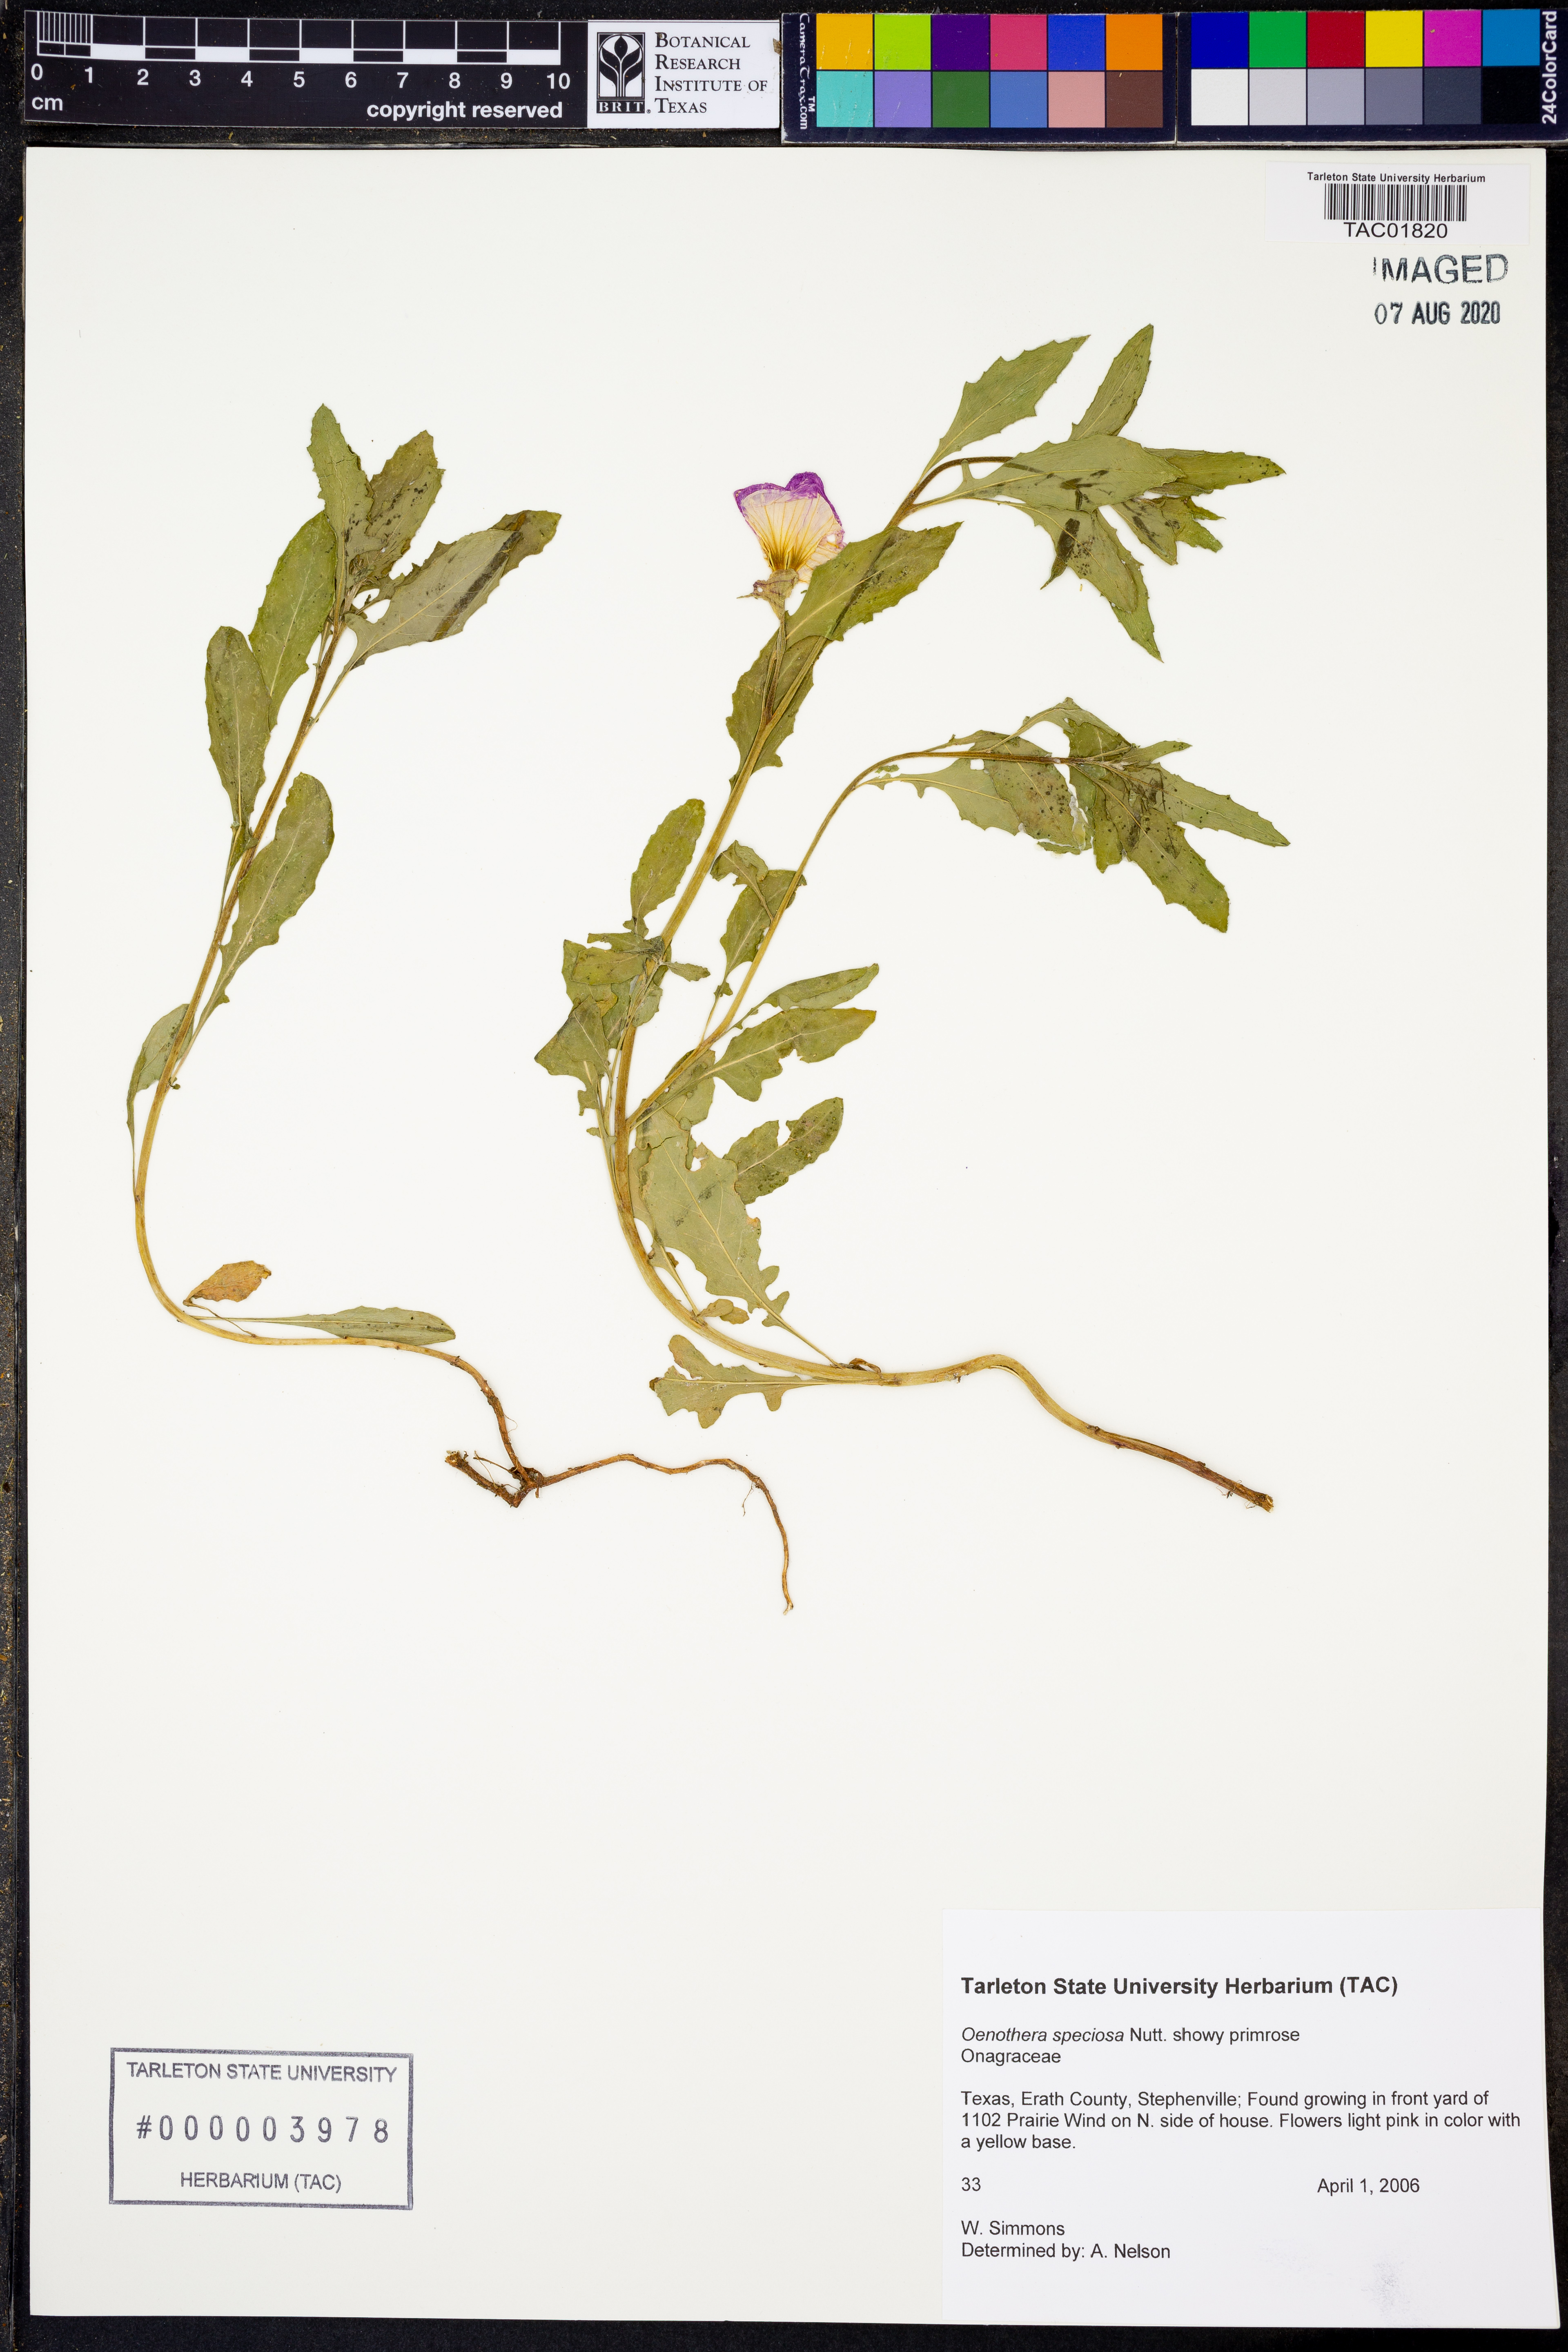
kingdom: Plantae
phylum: Tracheophyta
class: Magnoliopsida
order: Myrtales
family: Onagraceae
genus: Oenothera
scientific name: Oenothera speciosa
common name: White evening-primrose
